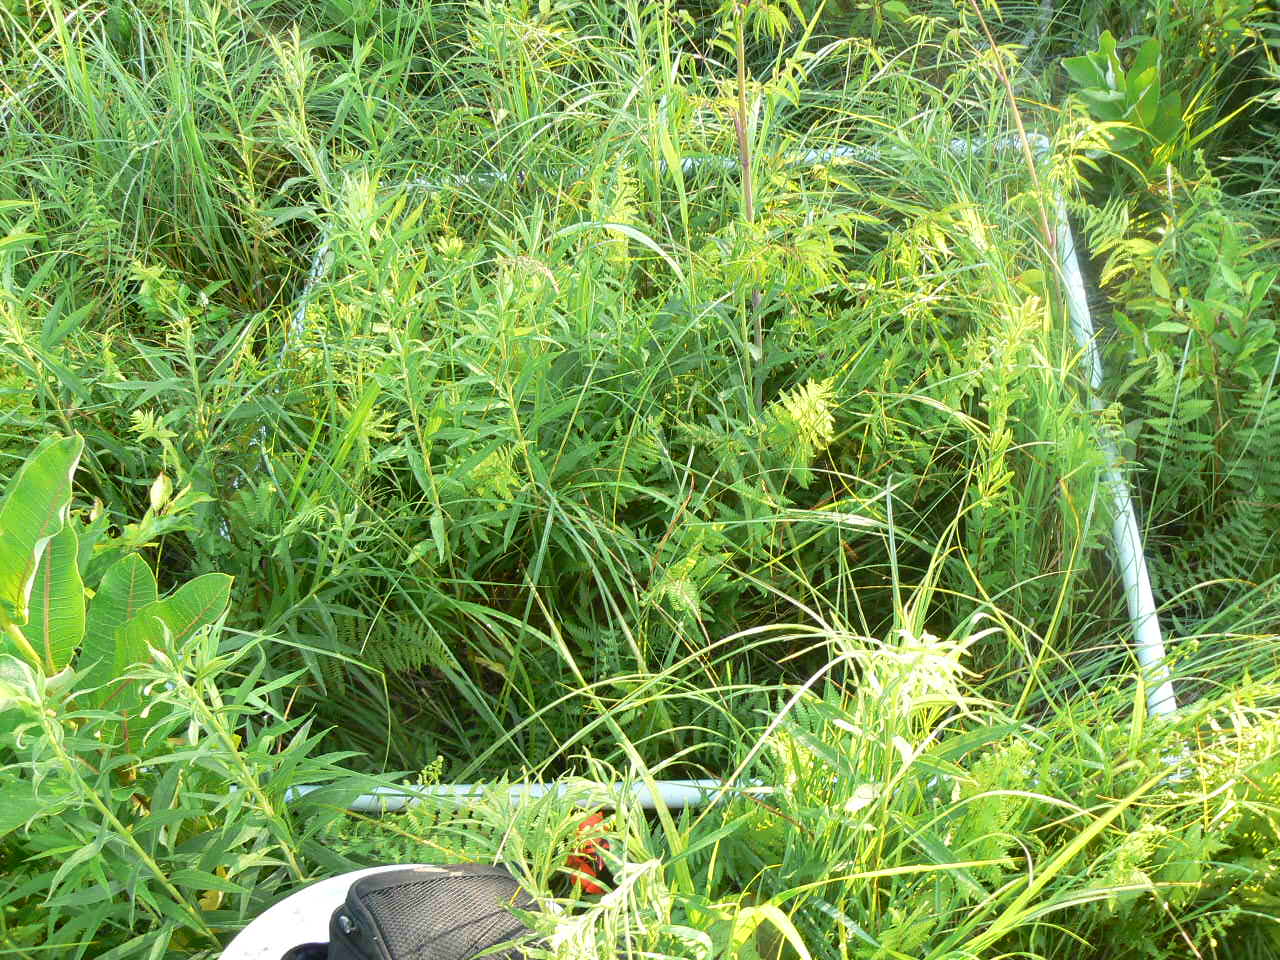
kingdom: Plantae
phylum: Tracheophyta
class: Magnoliopsida
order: Apiales
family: Apiaceae
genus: Angelica
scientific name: Angelica atropurpurea
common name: Great angelica
